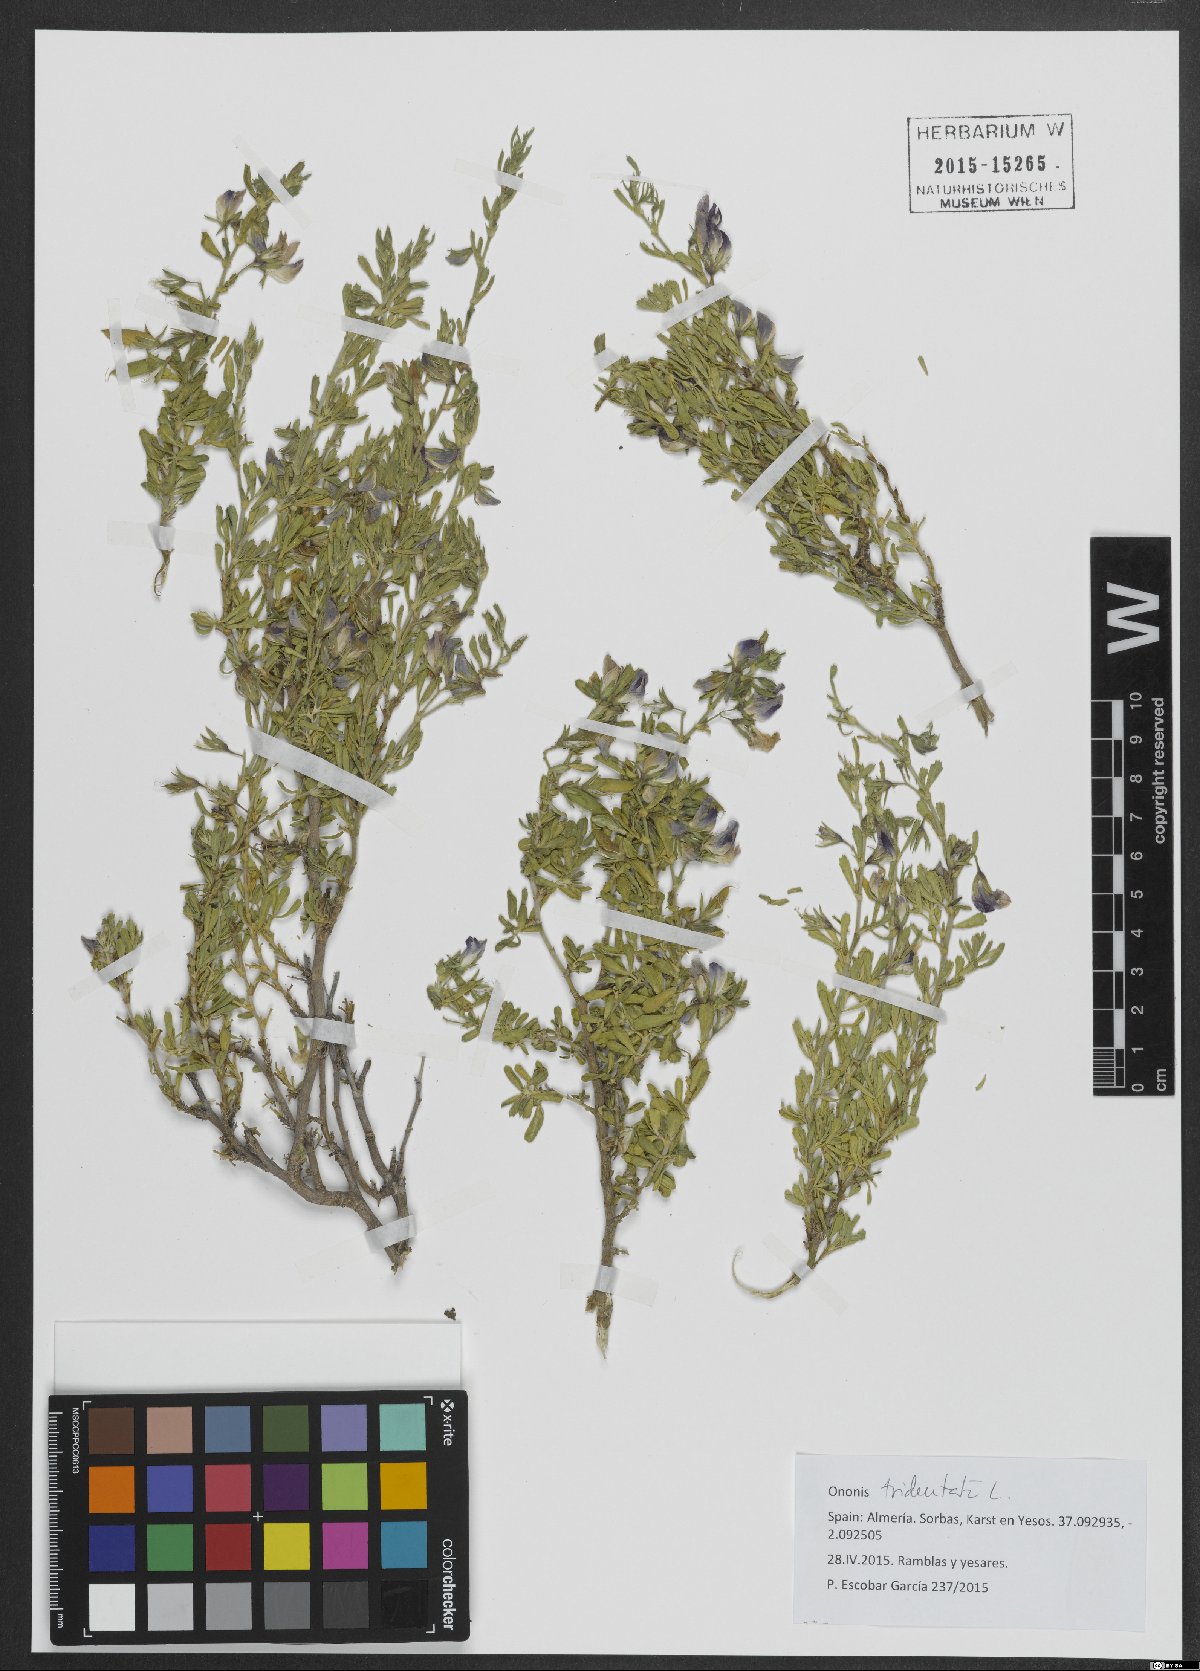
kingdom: Plantae
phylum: Tracheophyta
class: Magnoliopsida
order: Fabales
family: Fabaceae
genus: Ononis
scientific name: Ononis tridentata
